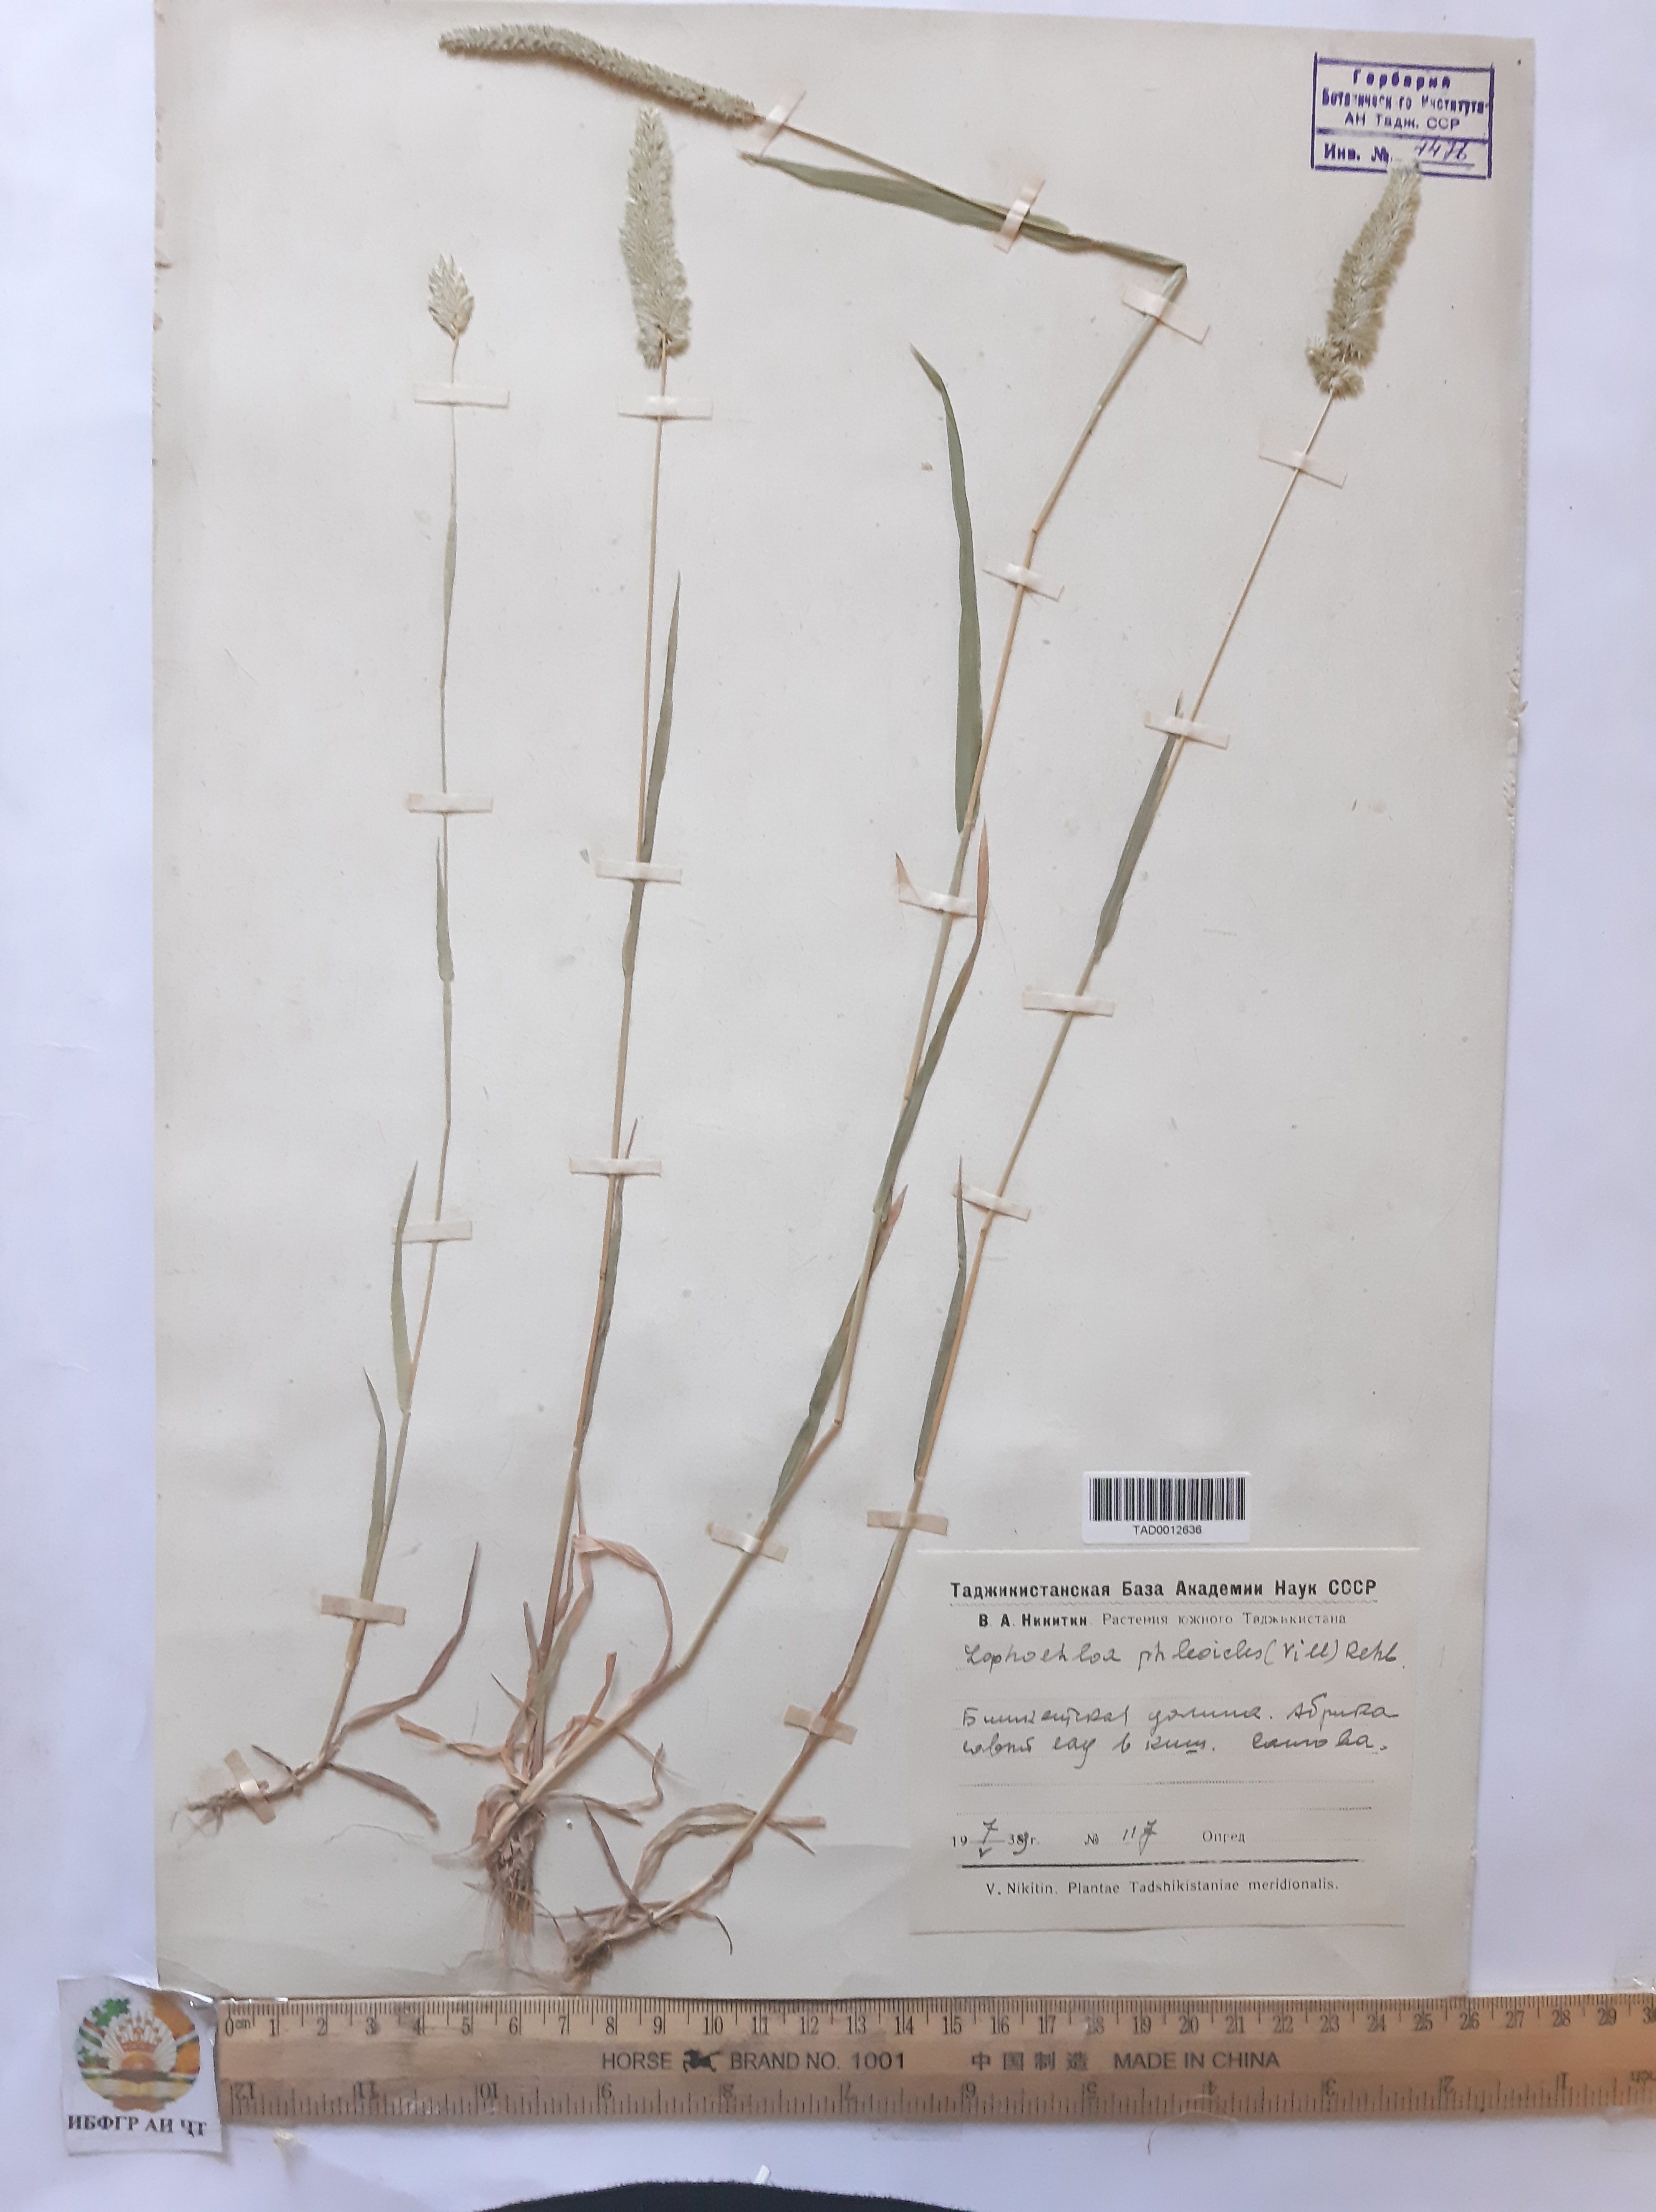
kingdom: Plantae
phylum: Tracheophyta
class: Liliopsida
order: Poales
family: Poaceae
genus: Rostraria
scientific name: Rostraria cristata
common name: Mediterranean hair-grass
